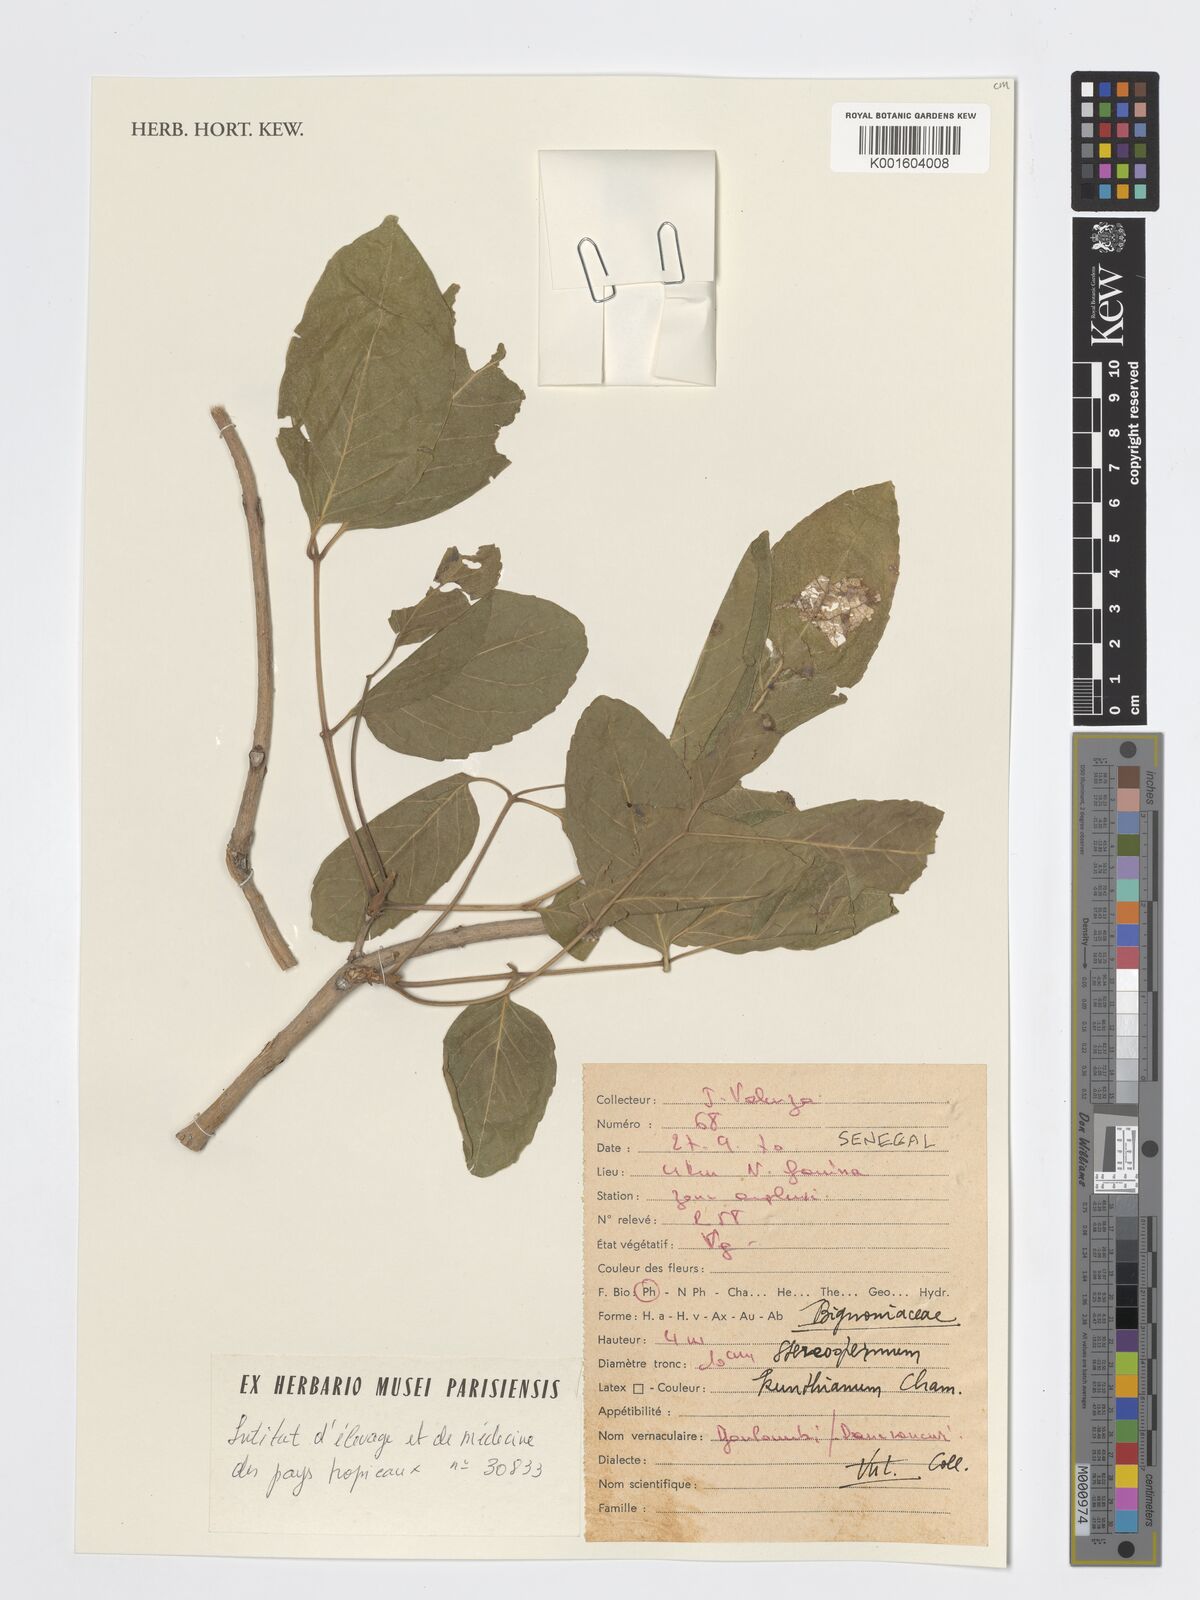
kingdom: Plantae
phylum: Tracheophyta
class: Magnoliopsida
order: Lamiales
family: Bignoniaceae
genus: Stereospermum
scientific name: Stereospermum kunthianum
